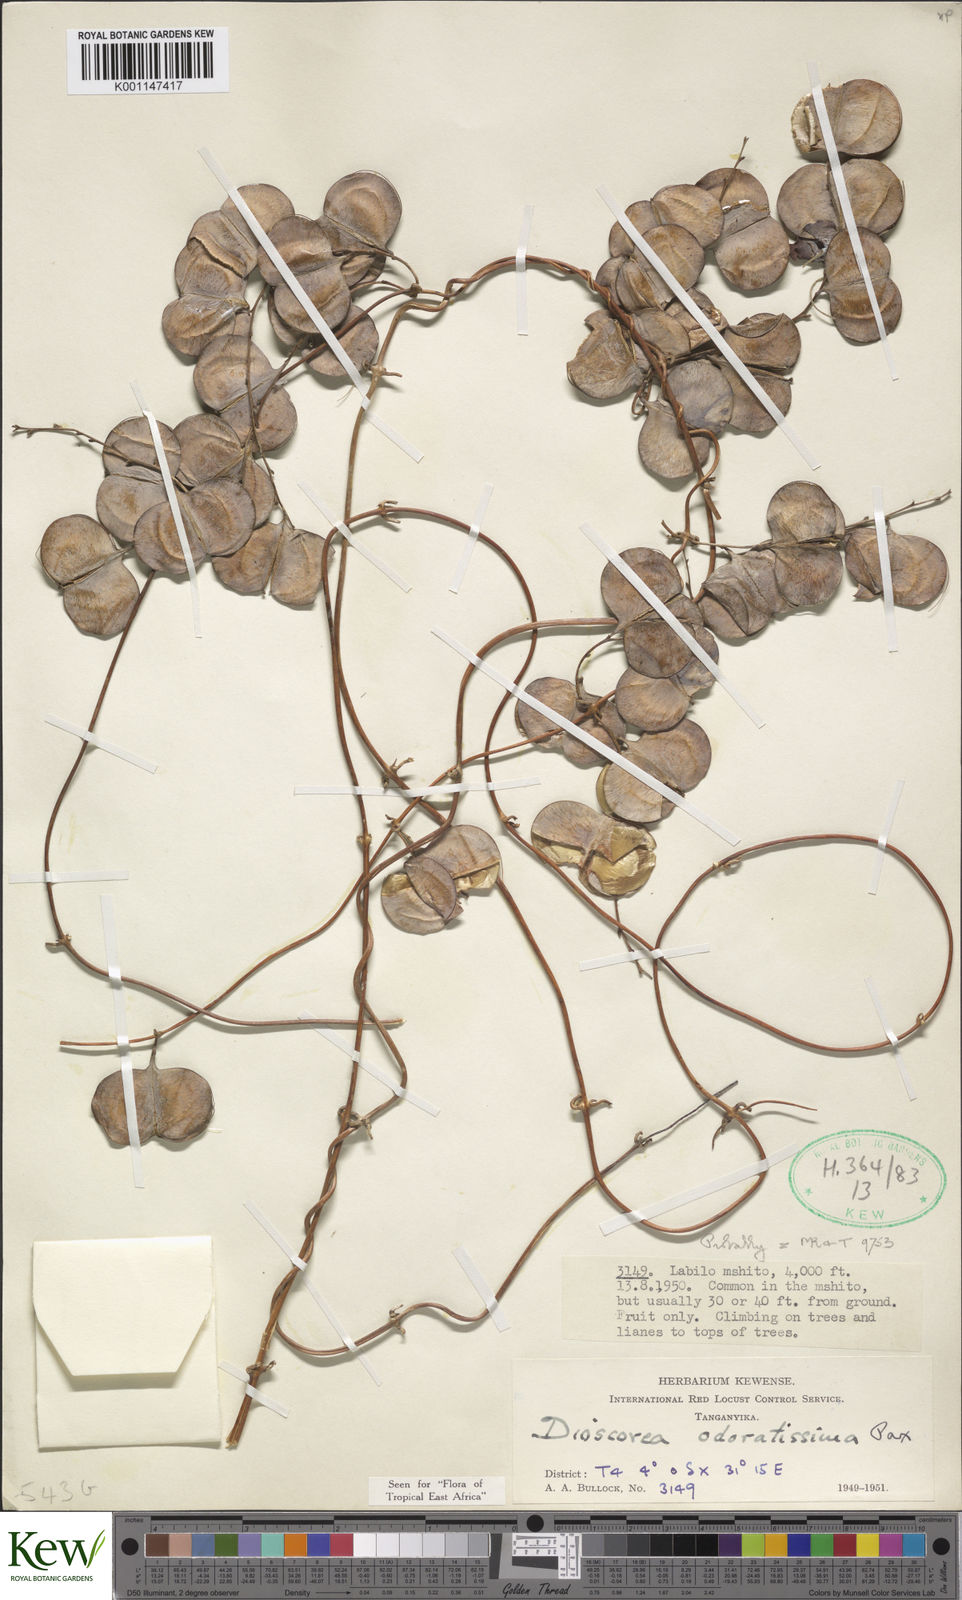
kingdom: Plantae
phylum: Tracheophyta
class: Liliopsida
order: Dioscoreales
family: Dioscoreaceae
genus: Dioscorea
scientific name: Dioscorea praehensilis
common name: Bush yam
